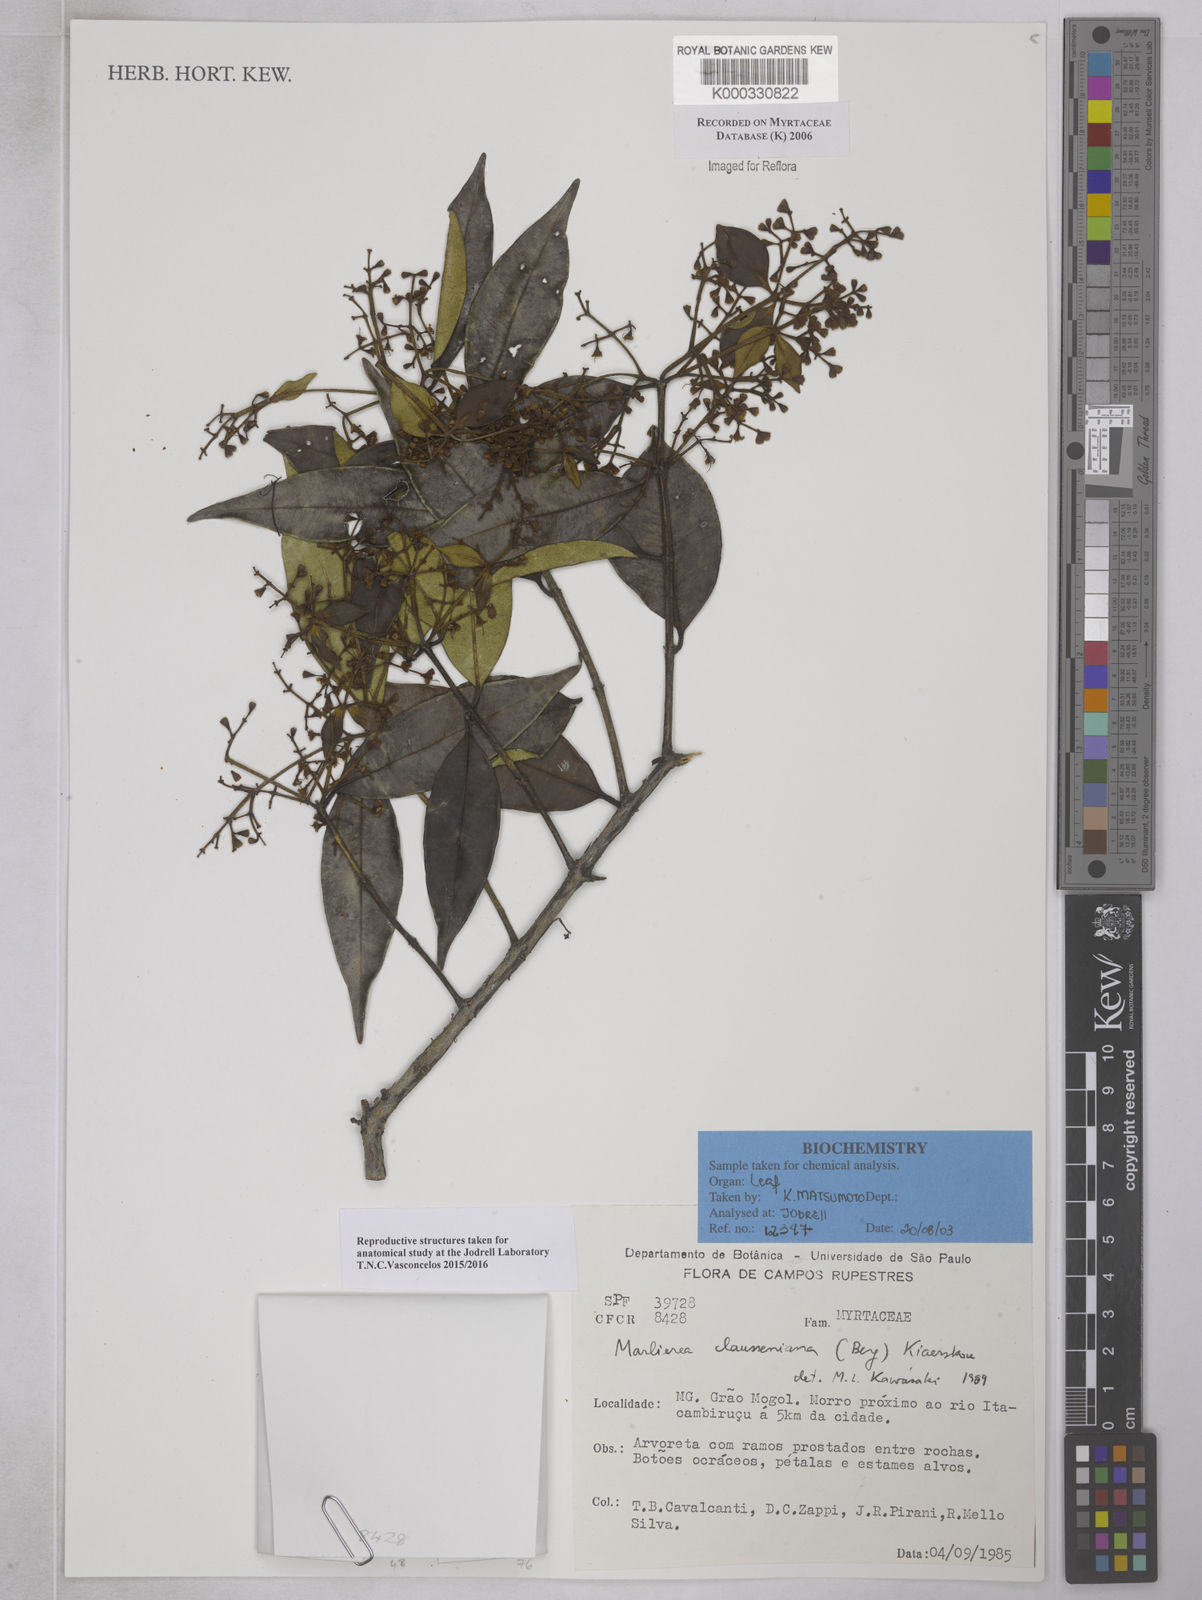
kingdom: Plantae
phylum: Tracheophyta
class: Magnoliopsida
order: Myrtales
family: Myrtaceae
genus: Marlierea
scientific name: Marlierea clausseniana
